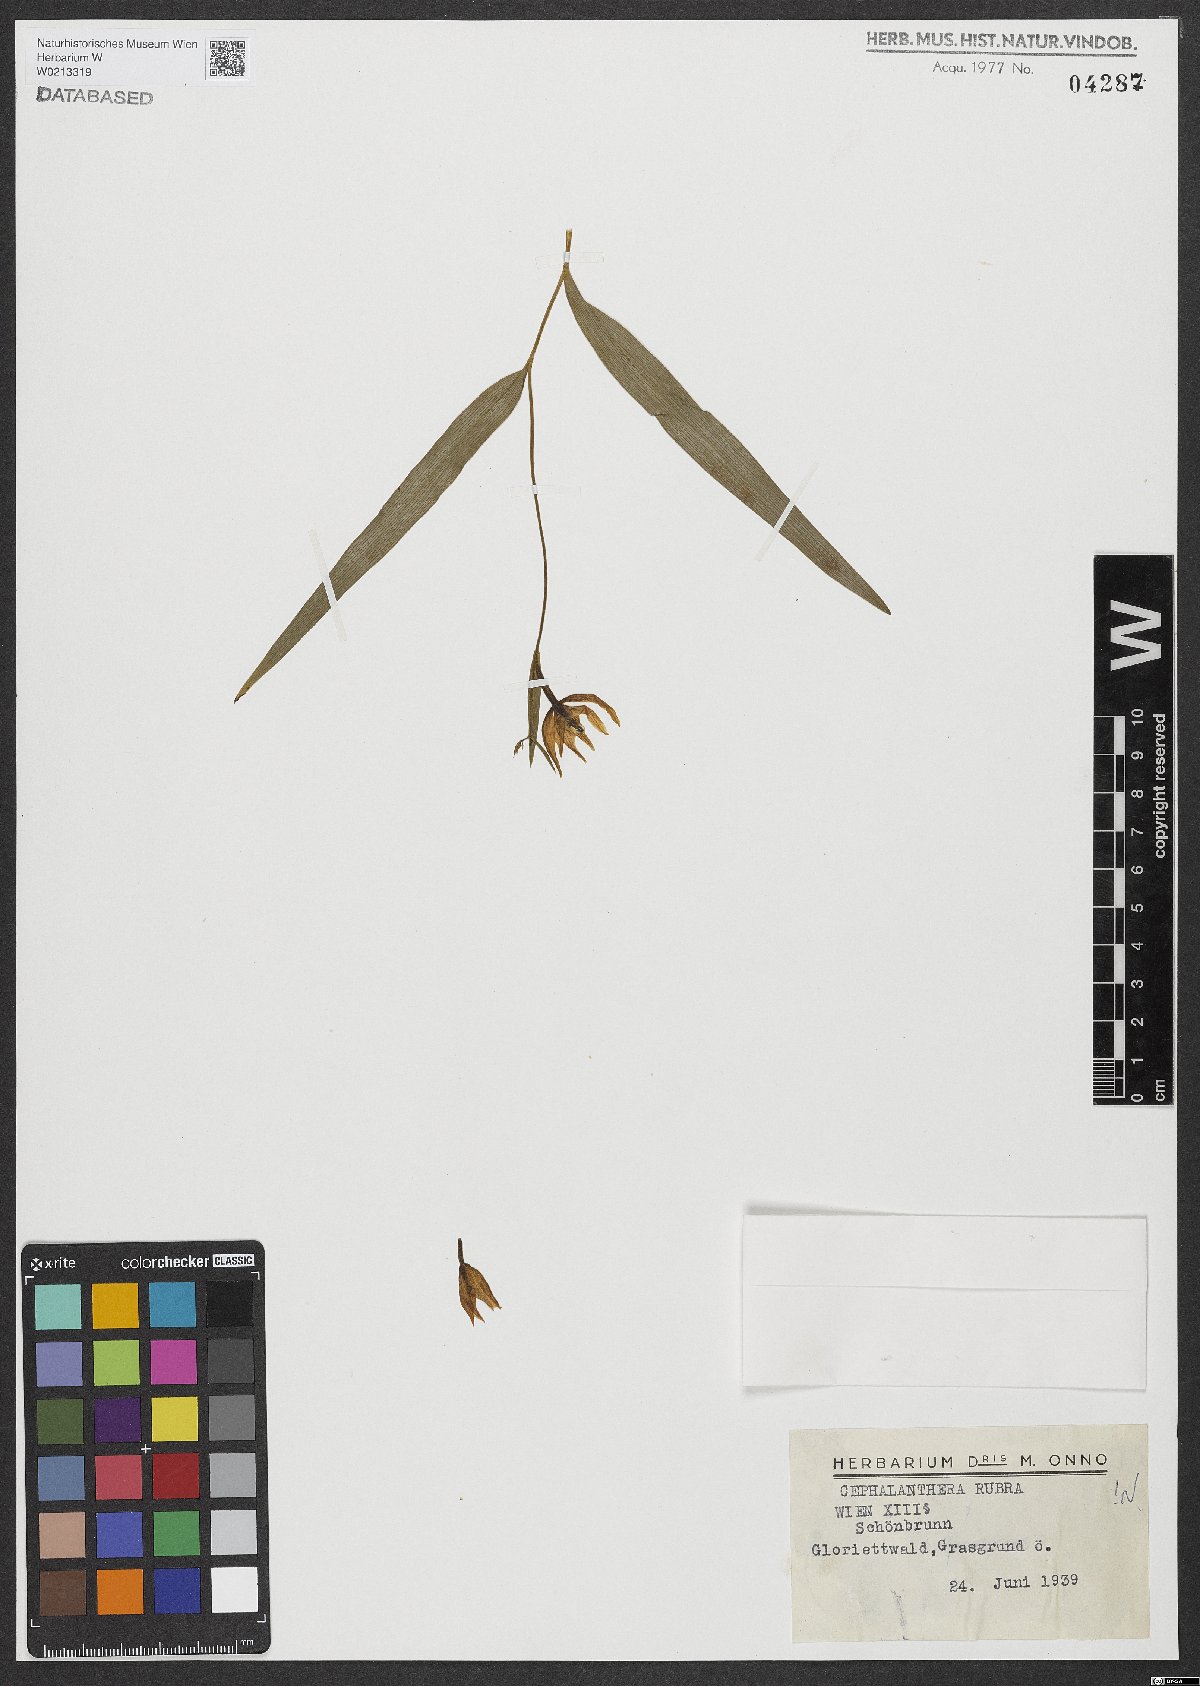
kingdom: Plantae
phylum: Tracheophyta
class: Liliopsida
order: Asparagales
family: Orchidaceae
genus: Cephalanthera
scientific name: Cephalanthera rubra
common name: Red helleborine
